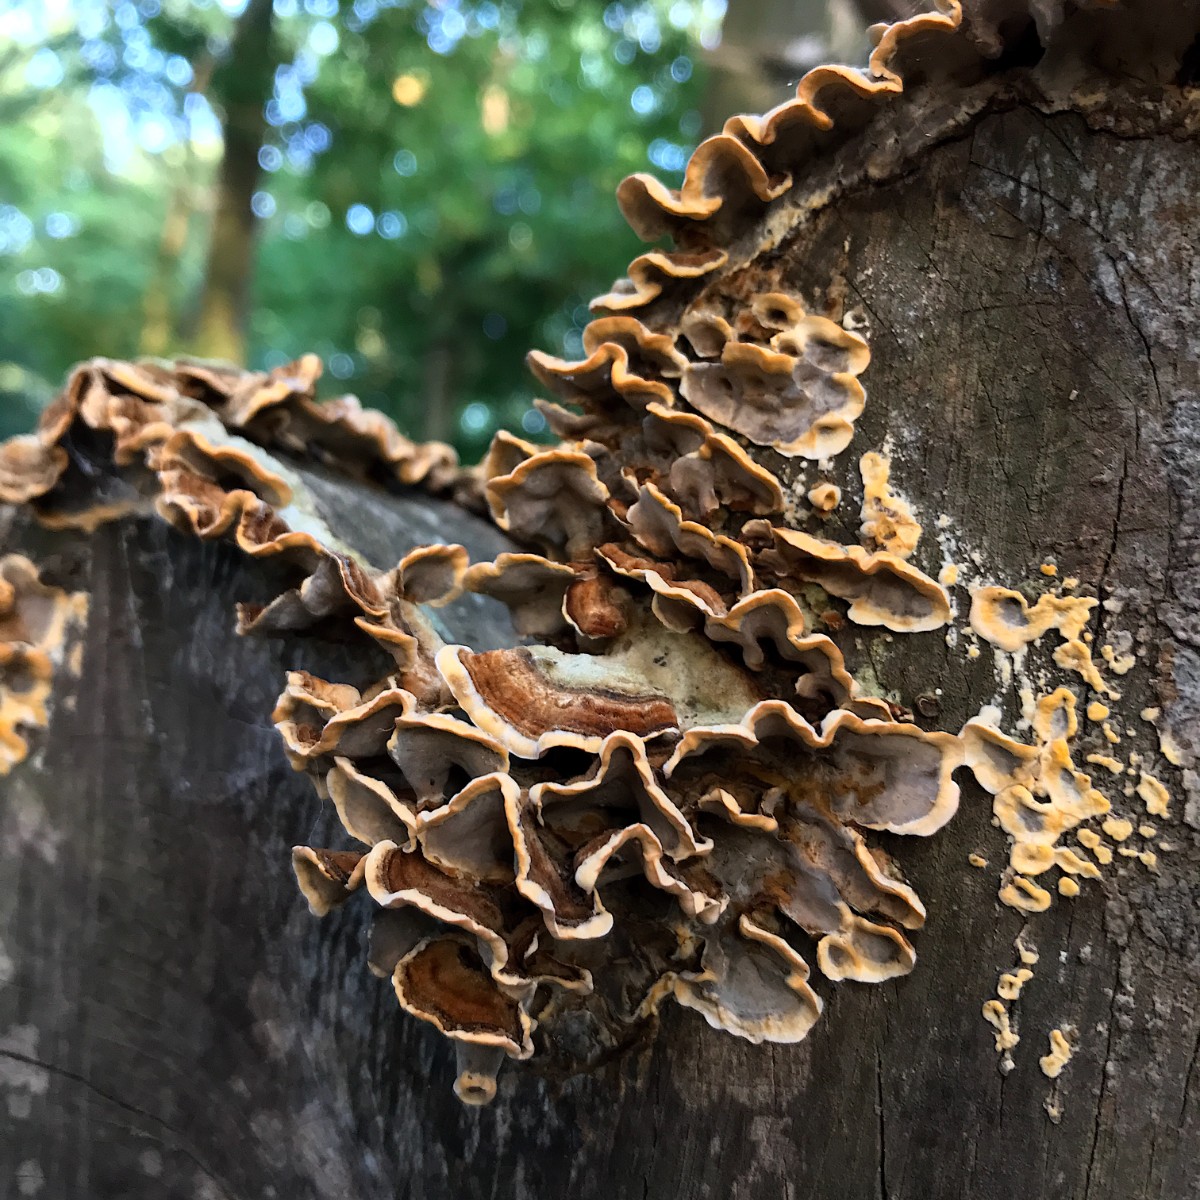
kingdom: Fungi
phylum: Basidiomycota
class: Agaricomycetes
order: Russulales
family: Stereaceae
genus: Stereum
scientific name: Stereum hirsutum
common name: håret lædersvamp
